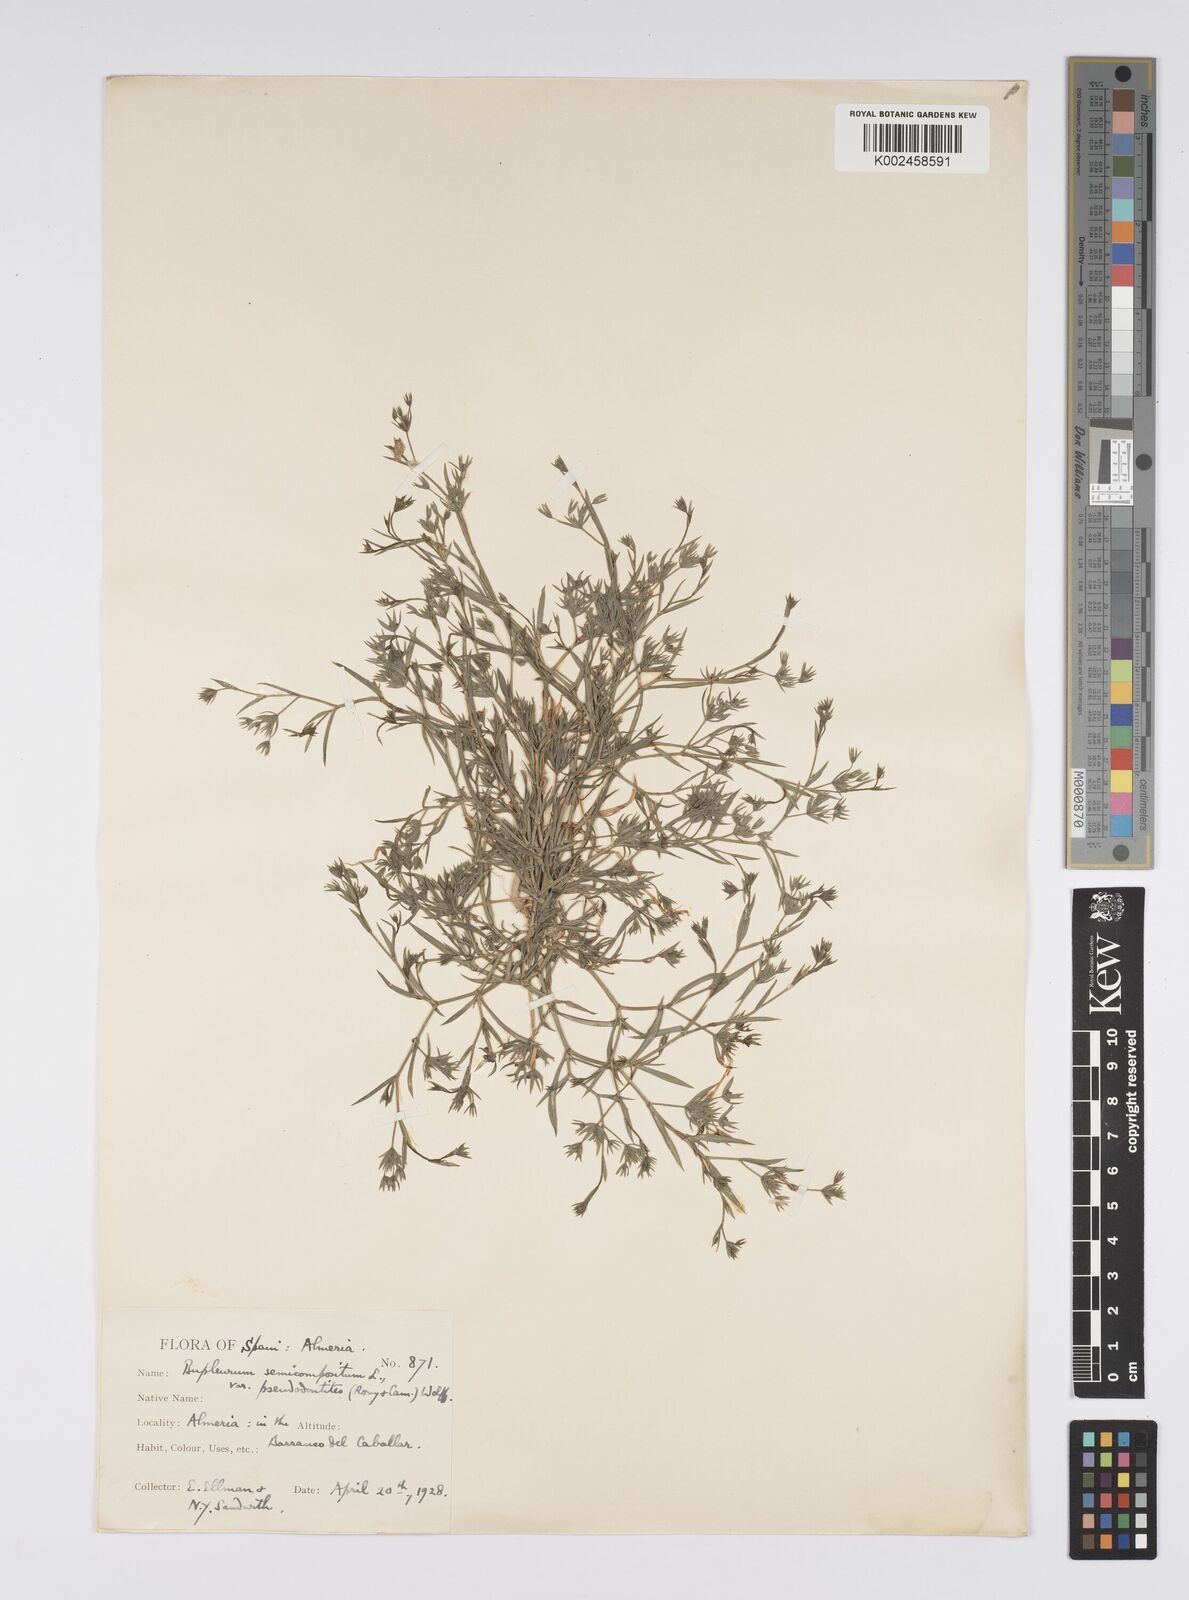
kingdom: Plantae
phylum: Tracheophyta
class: Magnoliopsida
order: Apiales
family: Apiaceae
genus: Bupleurum
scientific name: Bupleurum semicompositum
